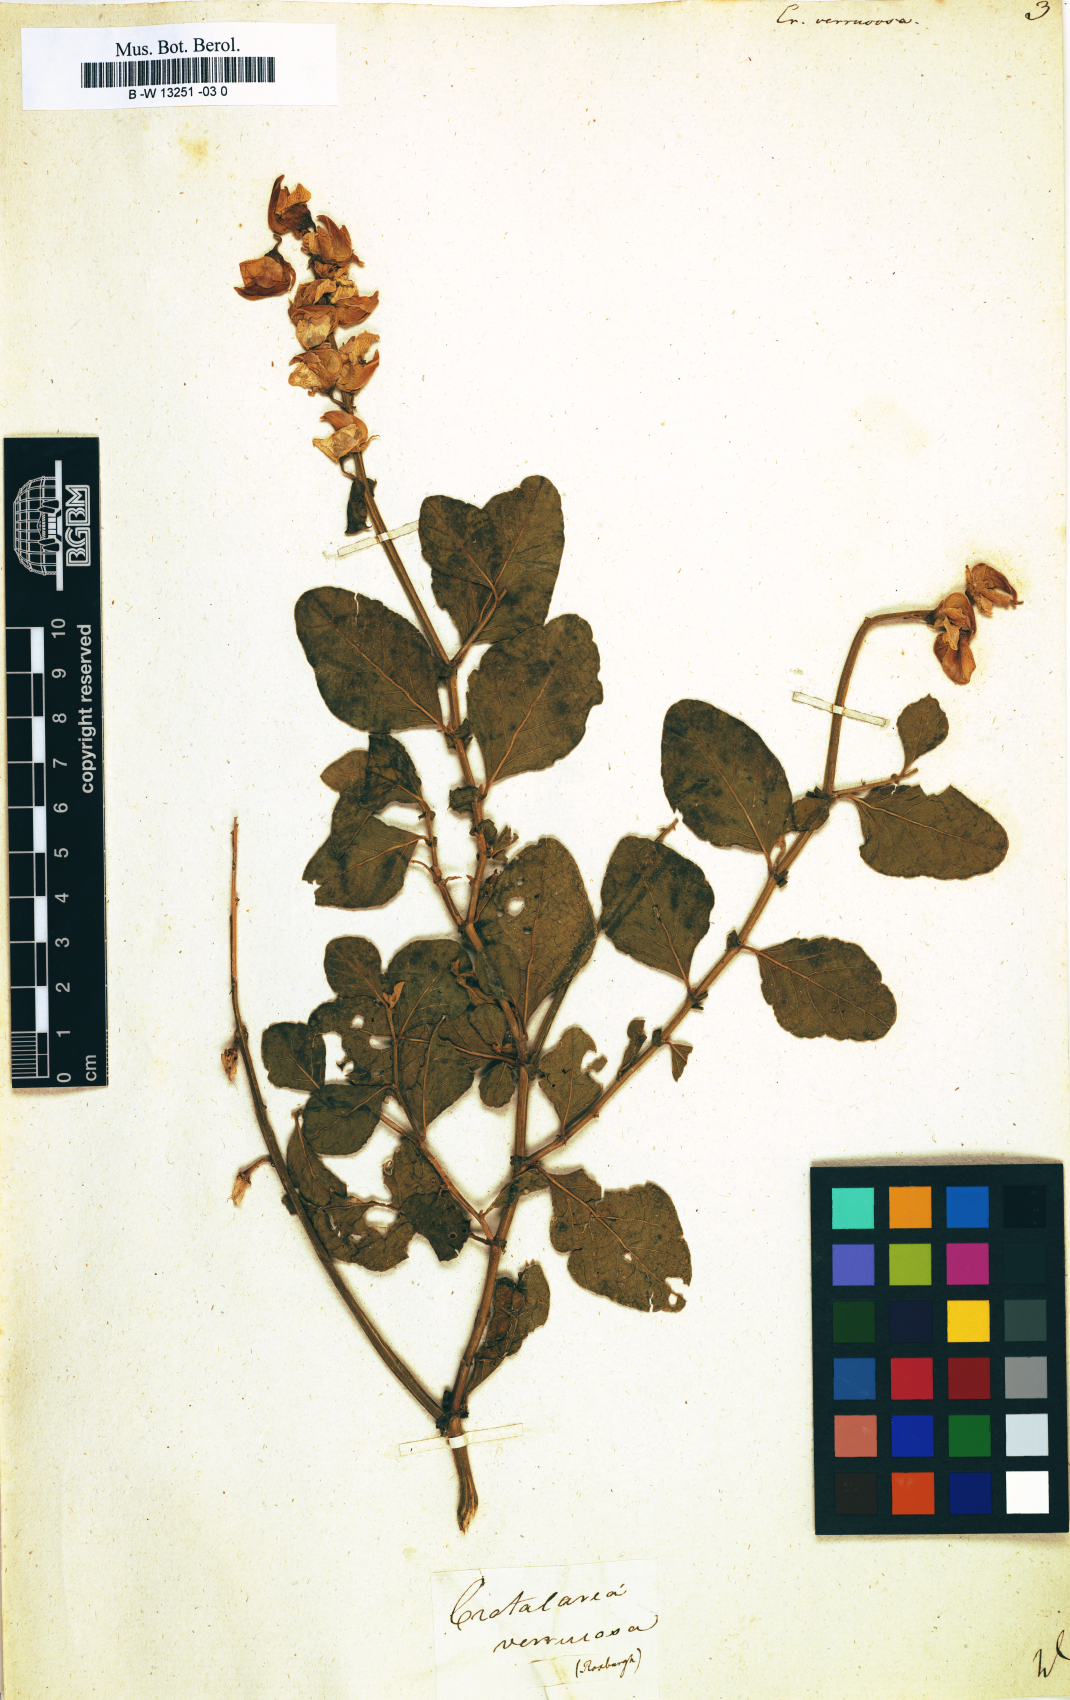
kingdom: Plantae
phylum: Tracheophyta
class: Magnoliopsida
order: Fabales
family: Fabaceae
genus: Crotalaria
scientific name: Crotalaria verrucosa
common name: Blue rattlesnake
